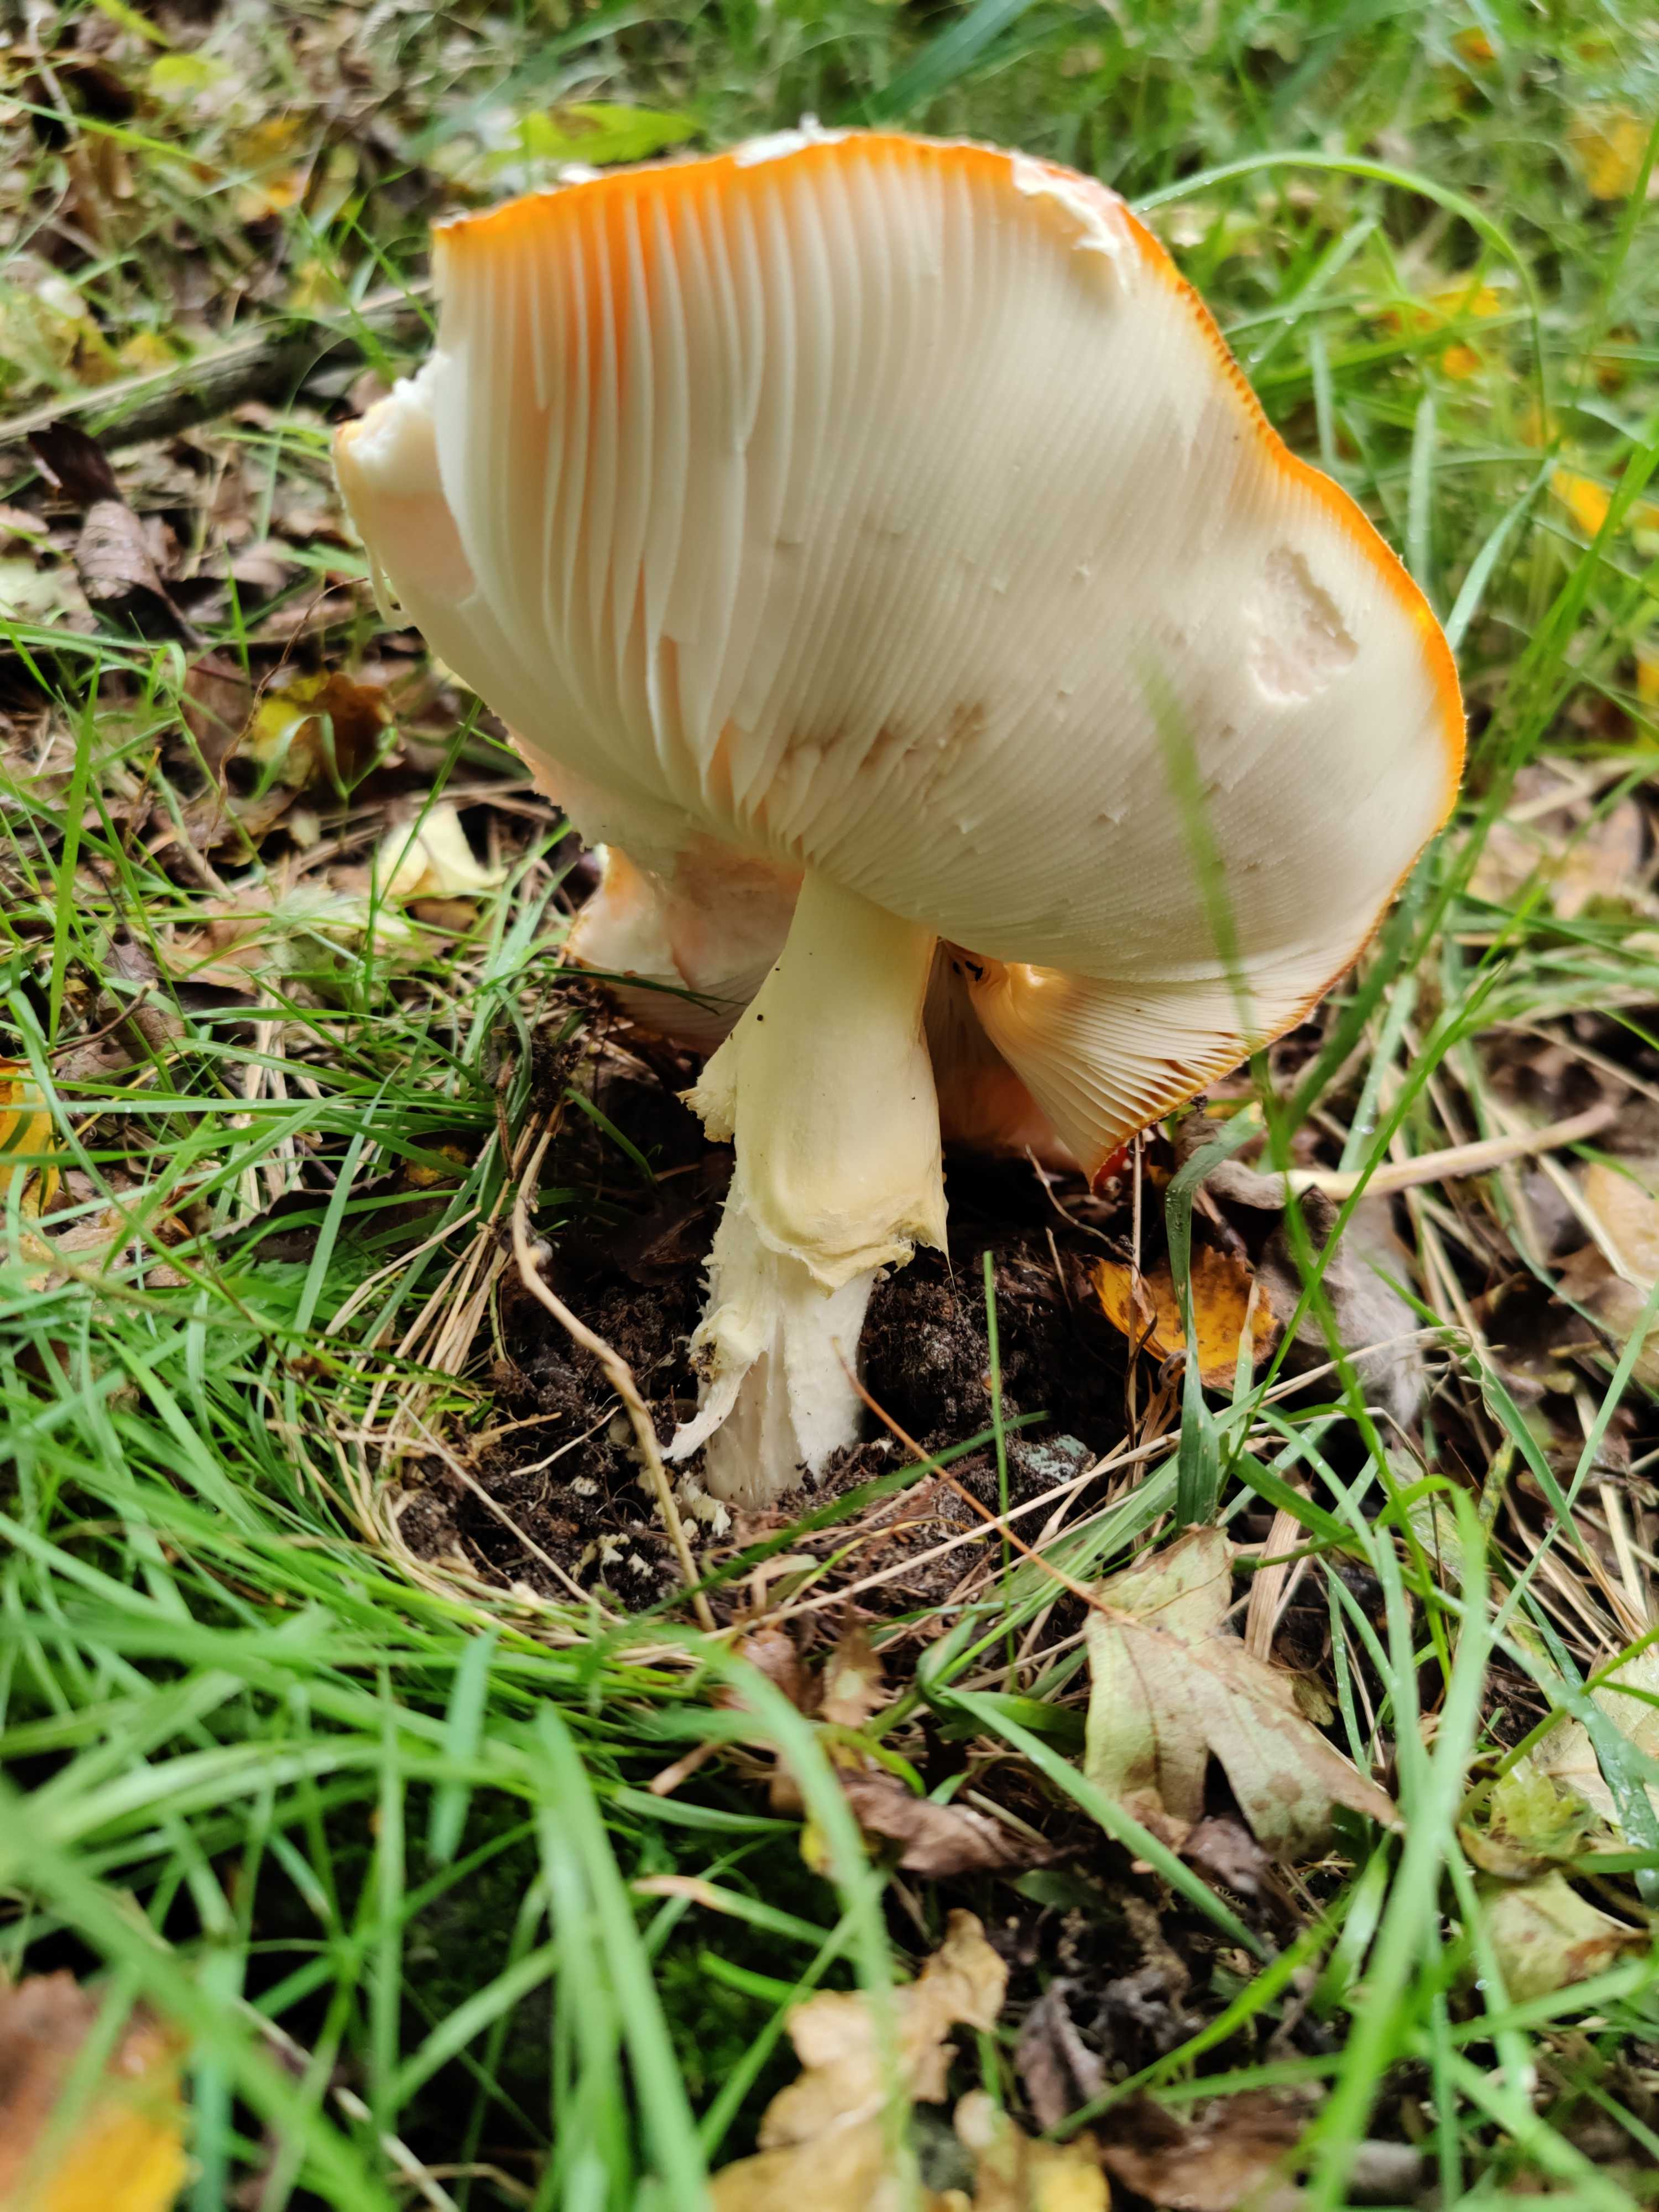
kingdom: Fungi
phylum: Basidiomycota
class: Agaricomycetes
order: Agaricales
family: Amanitaceae
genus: Amanita
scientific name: Amanita muscaria
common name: rød fluesvamp
